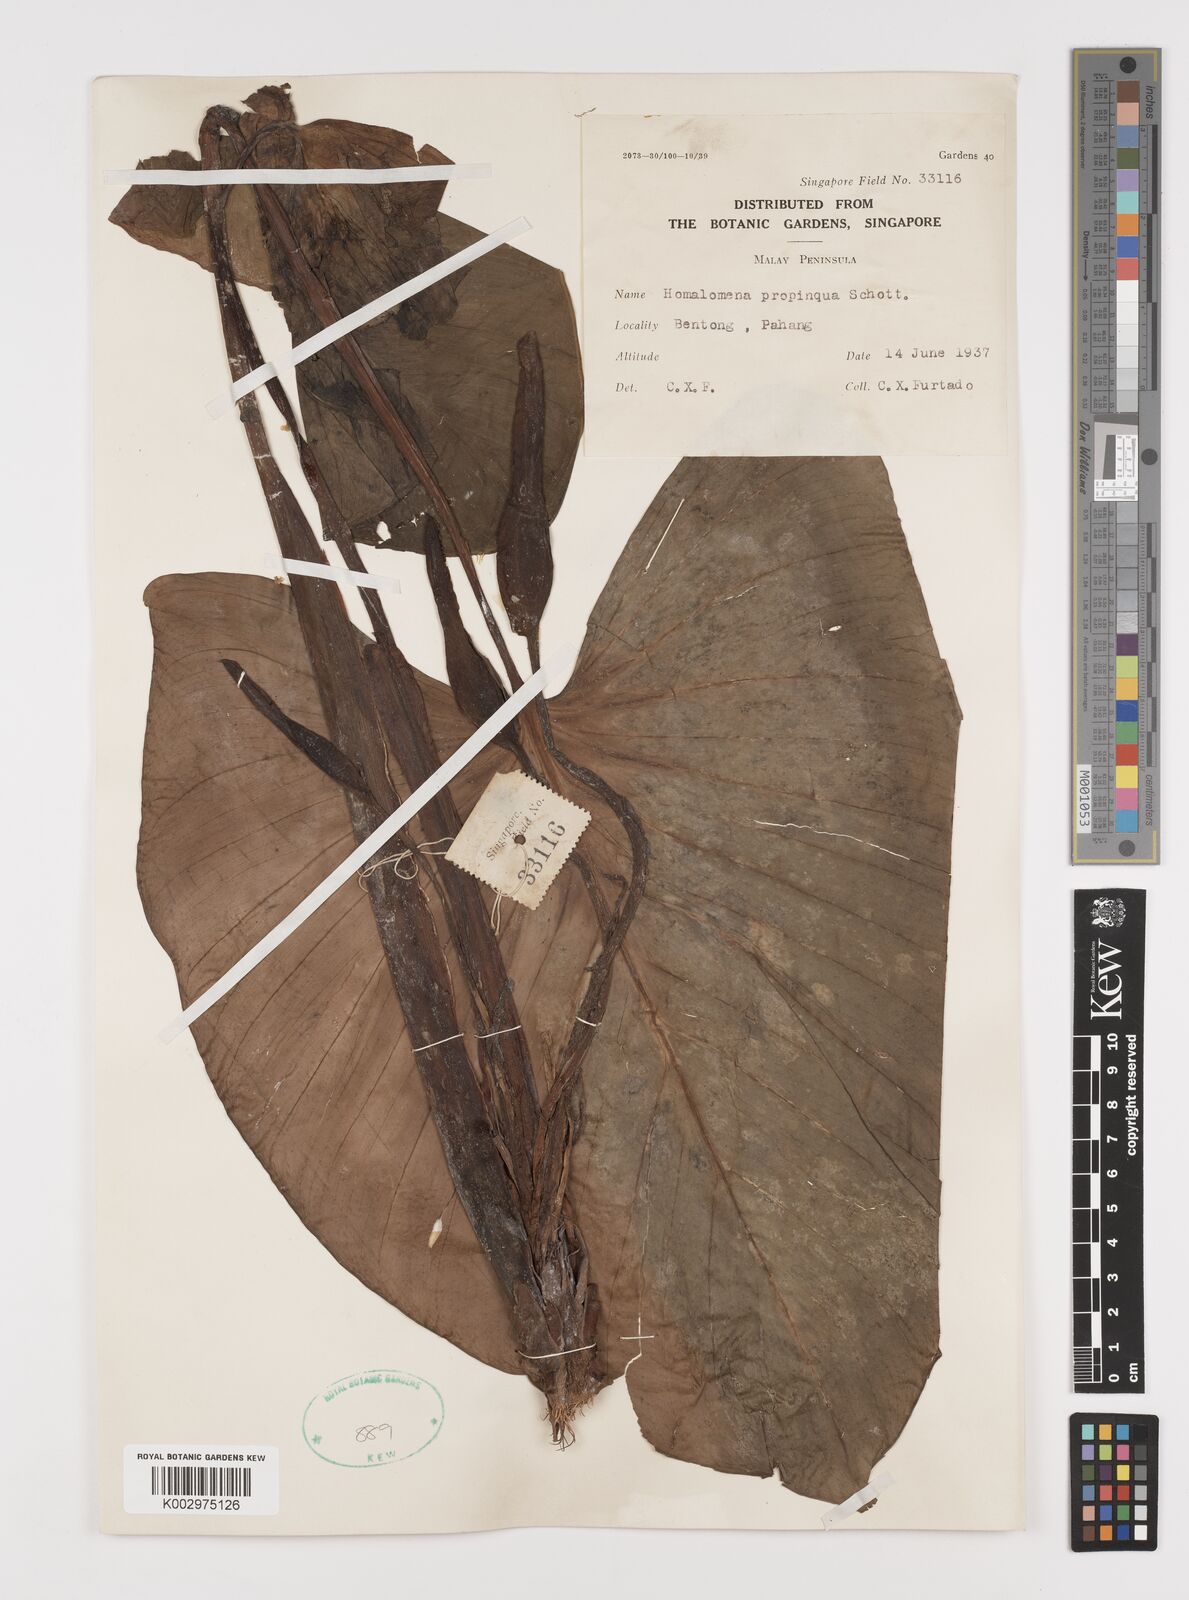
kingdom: Plantae
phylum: Tracheophyta
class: Liliopsida
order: Alismatales
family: Araceae
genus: Homalomena
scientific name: Homalomena humilis
